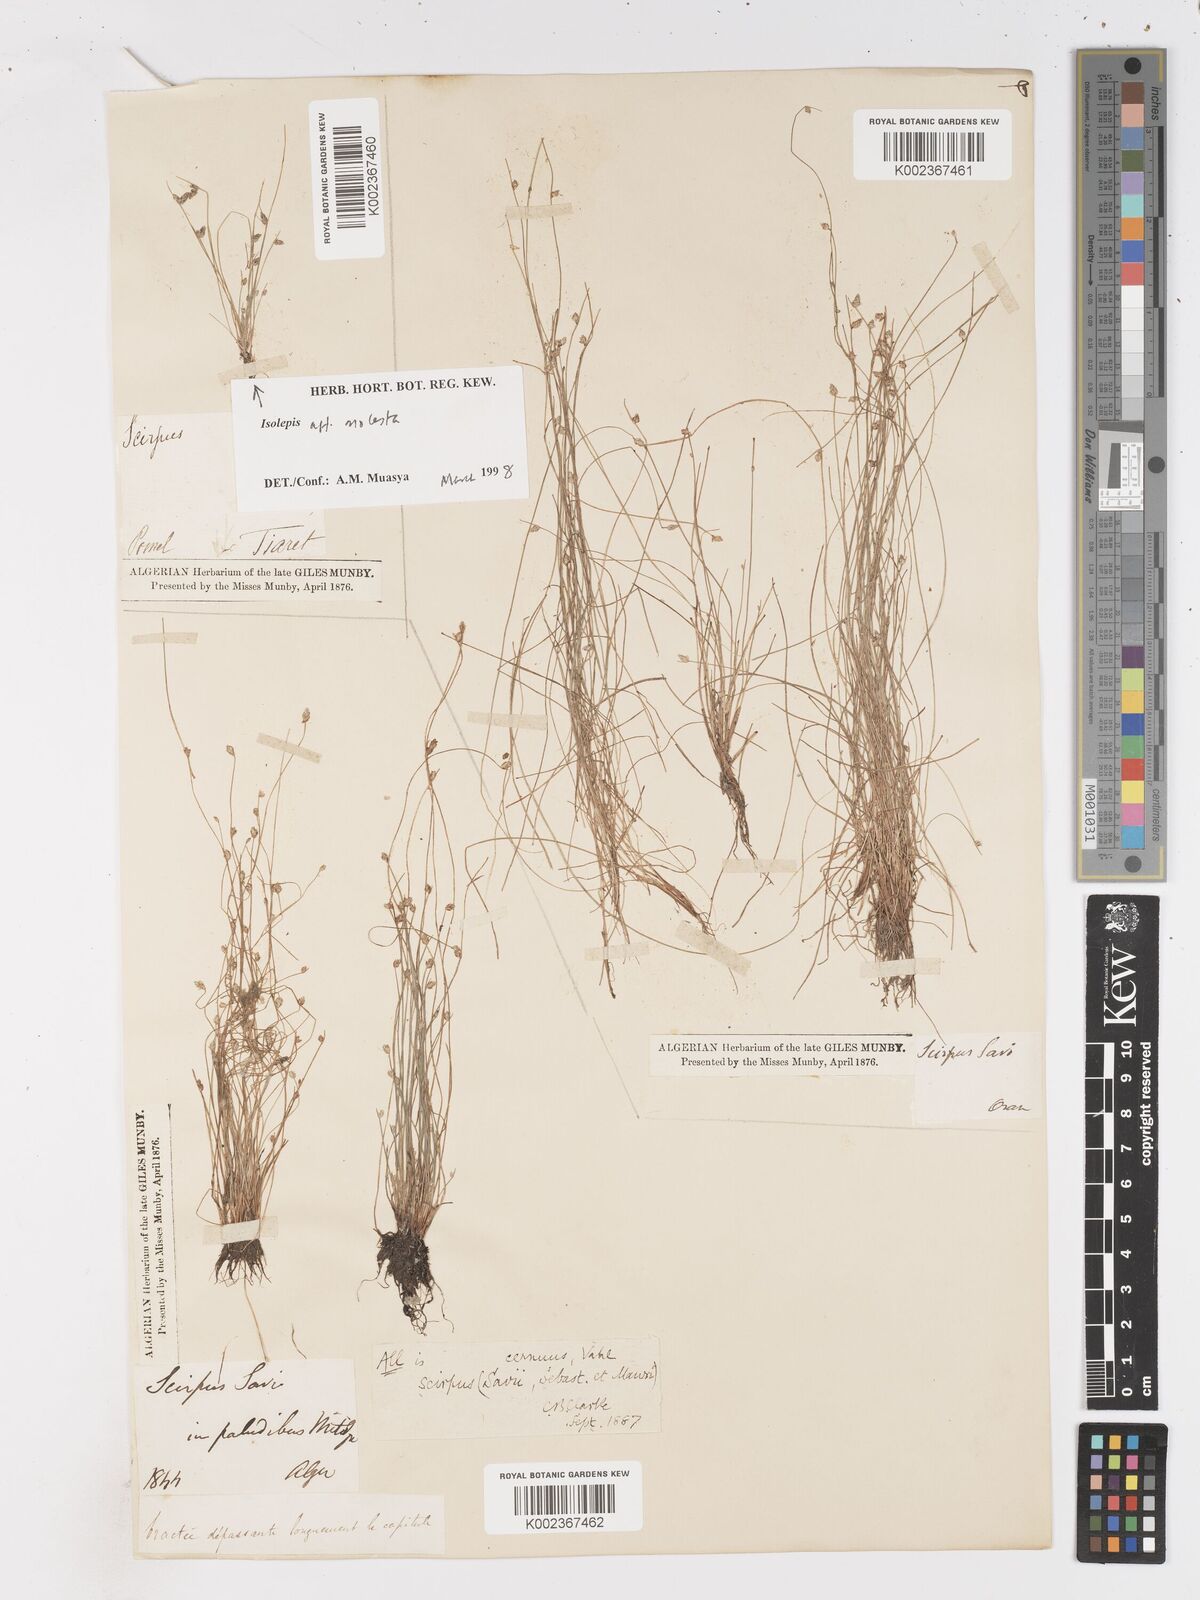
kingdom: Plantae
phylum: Tracheophyta
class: Liliopsida
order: Poales
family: Cyperaceae
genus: Isolepis
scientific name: Isolepis cernua
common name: Slender club-rush
